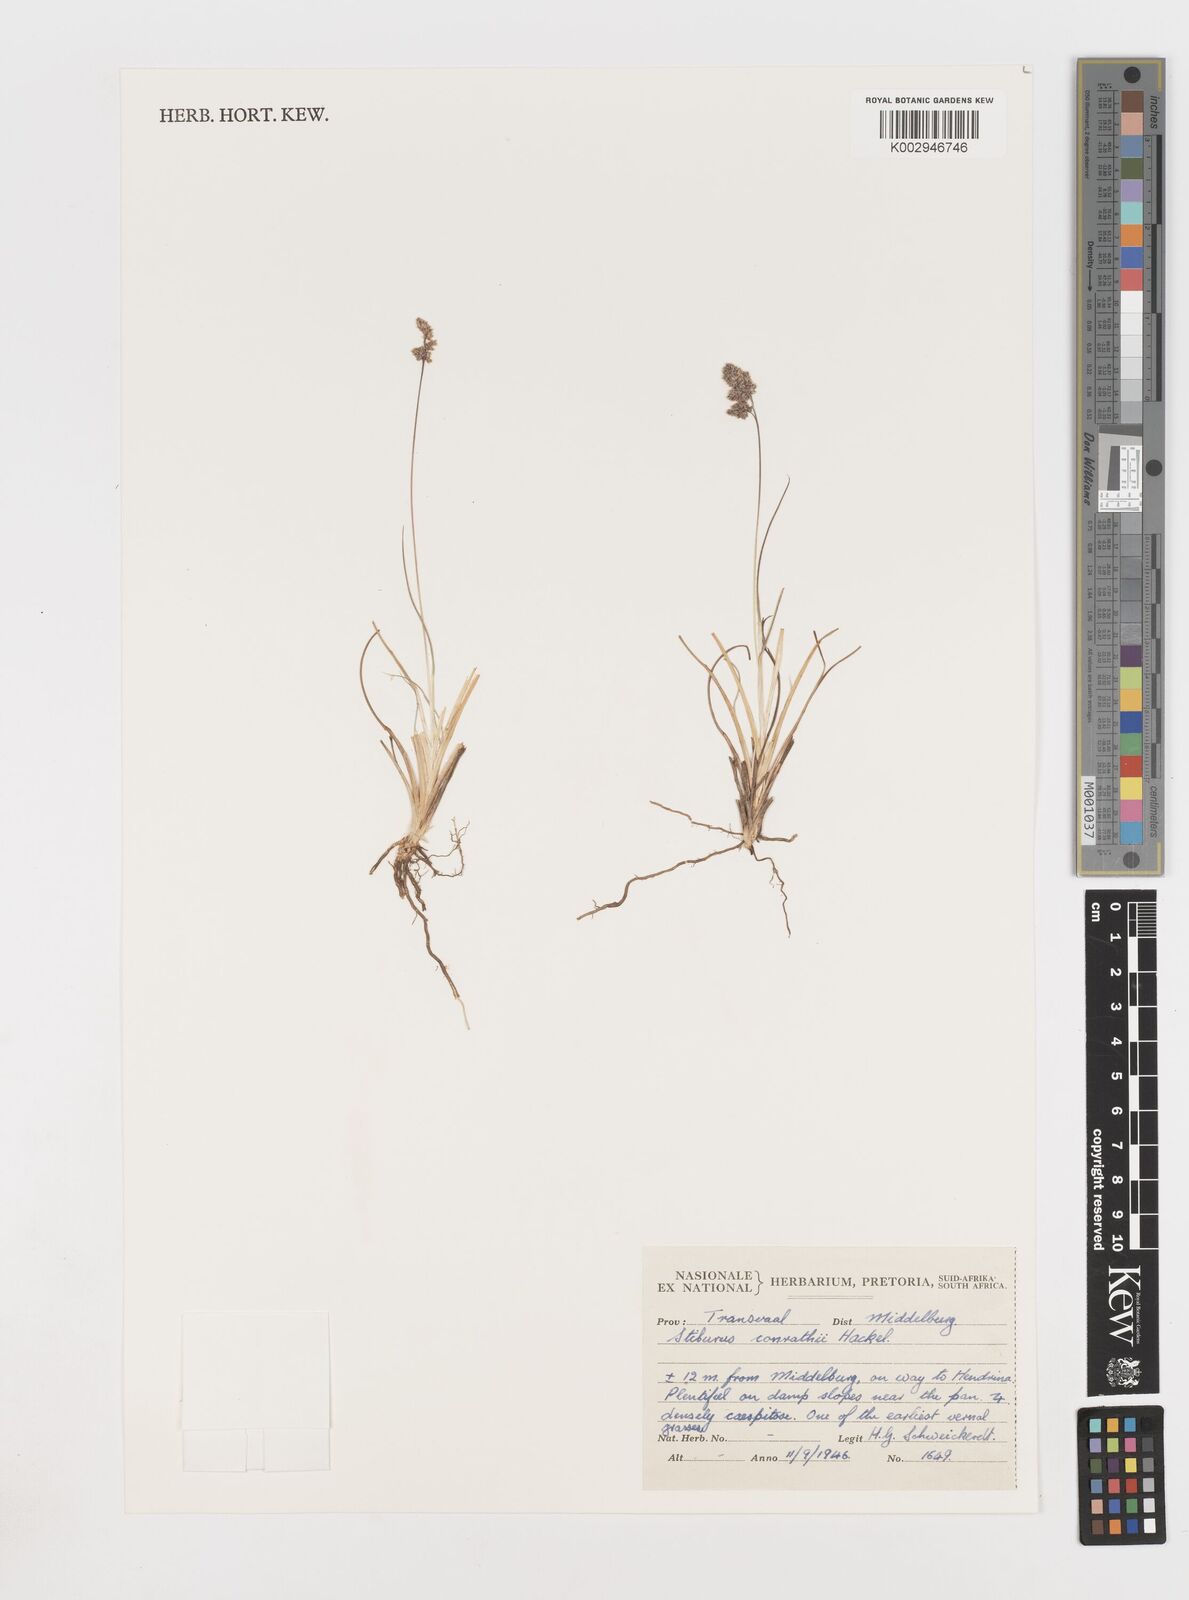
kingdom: Plantae
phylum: Tracheophyta
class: Liliopsida
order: Poales
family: Poaceae
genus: Stiburus
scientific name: Stiburus conrathii
